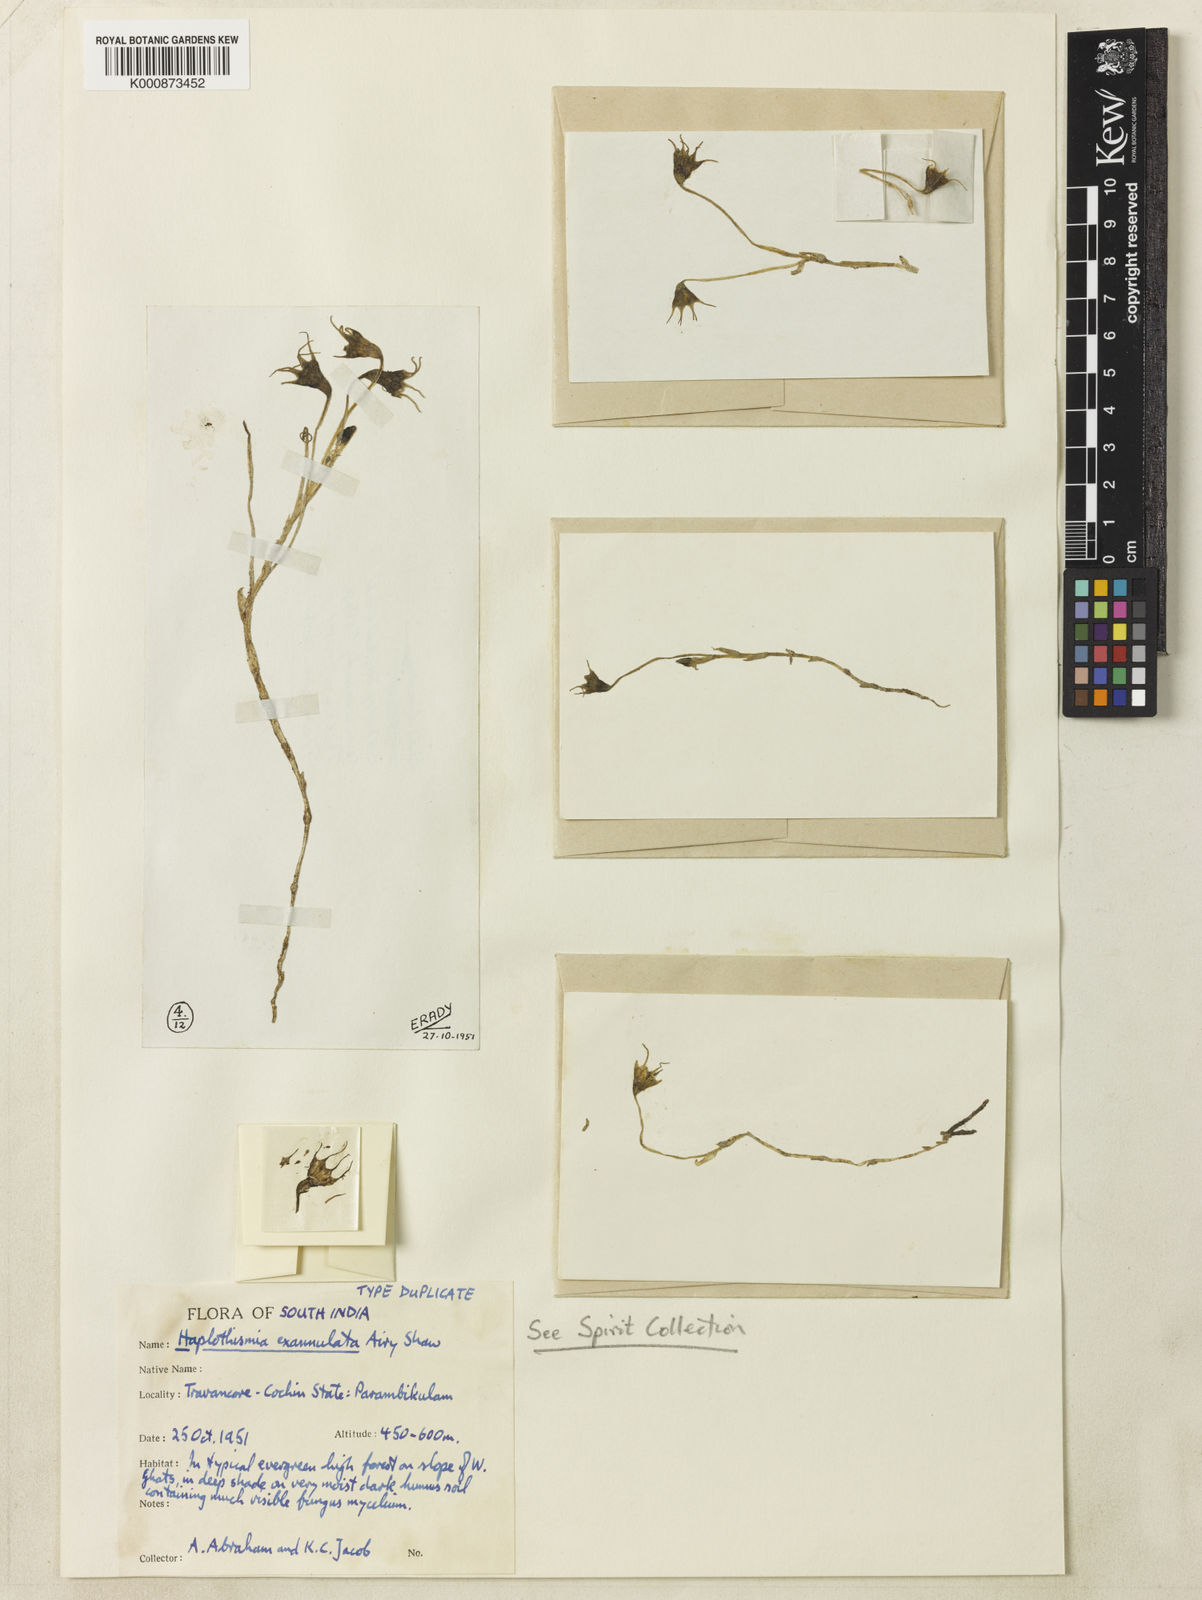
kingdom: Plantae
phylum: Tracheophyta
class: Liliopsida
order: Dioscoreales
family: Burmanniaceae
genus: Haplothismia
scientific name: Haplothismia exannulata
